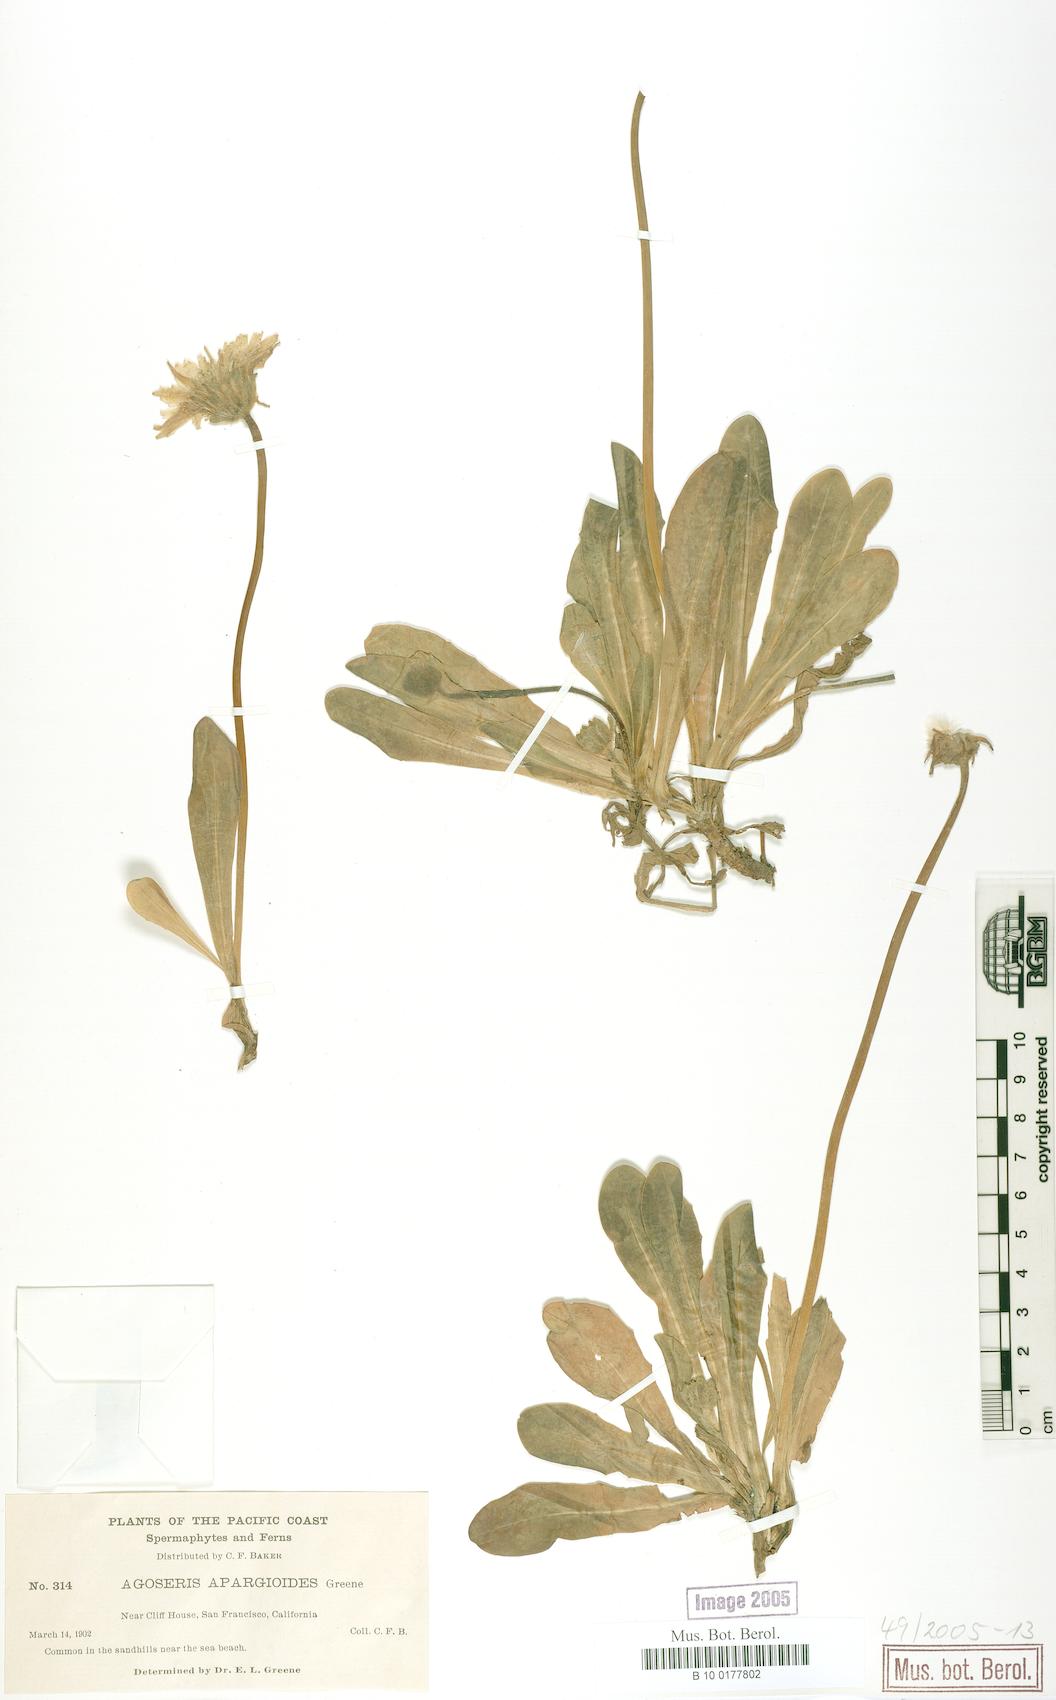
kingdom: Plantae
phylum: Tracheophyta
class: Magnoliopsida
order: Asterales
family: Asteraceae
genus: Agoseris
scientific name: Agoseris apargioides
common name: Point reyes agoseris
